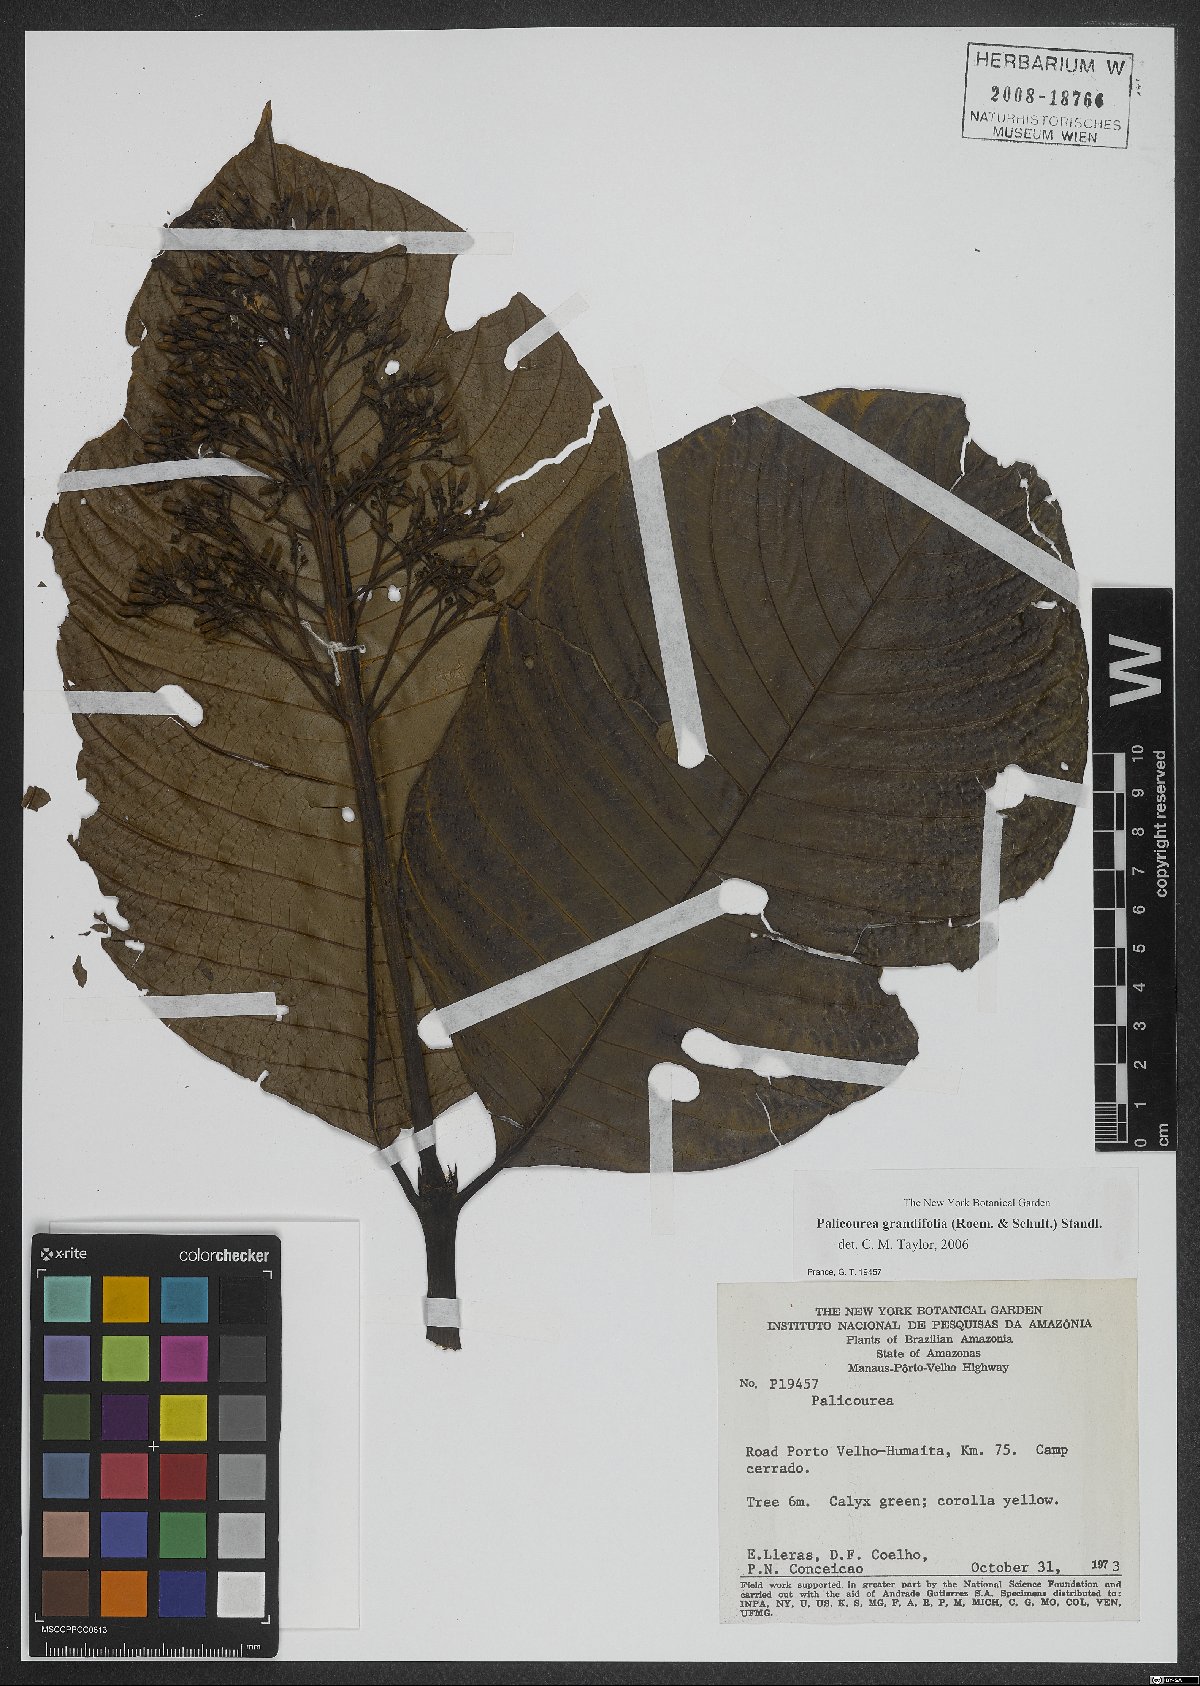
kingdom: Plantae
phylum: Tracheophyta
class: Magnoliopsida
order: Gentianales
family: Rubiaceae
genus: Palicourea
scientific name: Palicourea grandifolia
